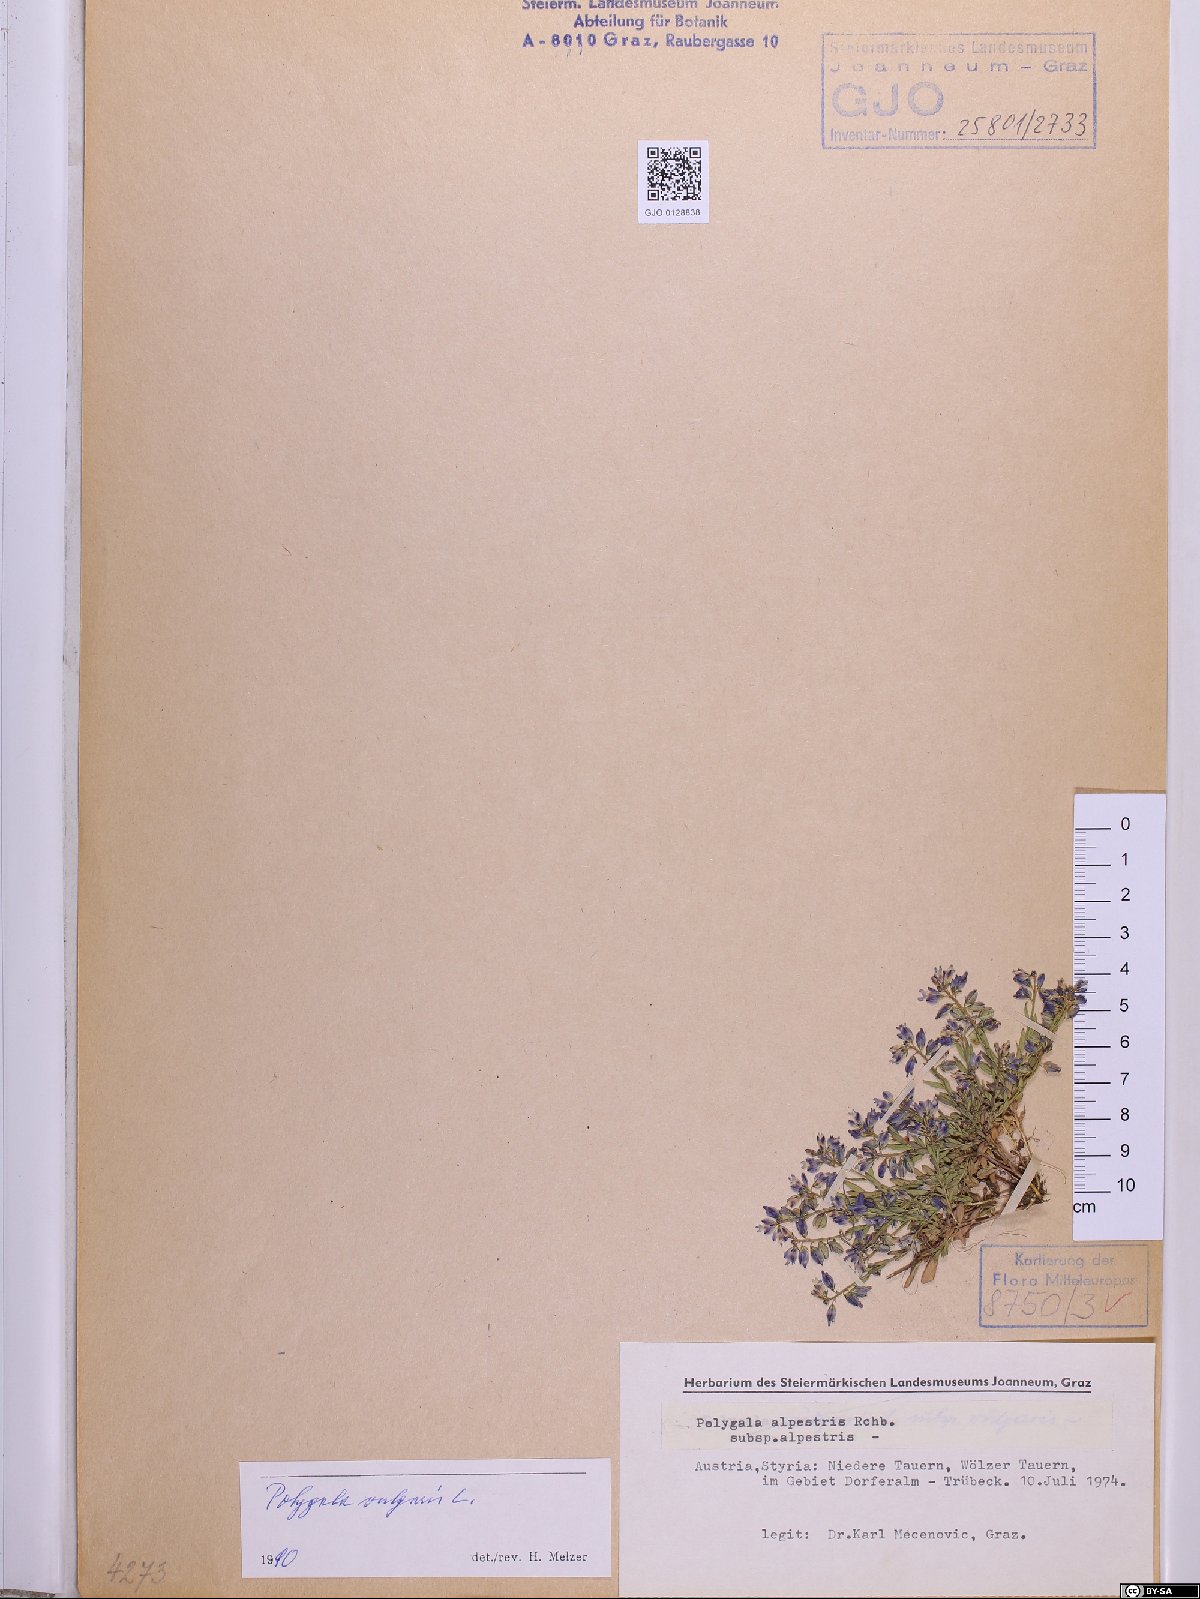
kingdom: Plantae
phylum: Tracheophyta
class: Magnoliopsida
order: Fabales
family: Polygalaceae
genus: Polygala
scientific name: Polygala vulgaris
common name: Common milkwort
